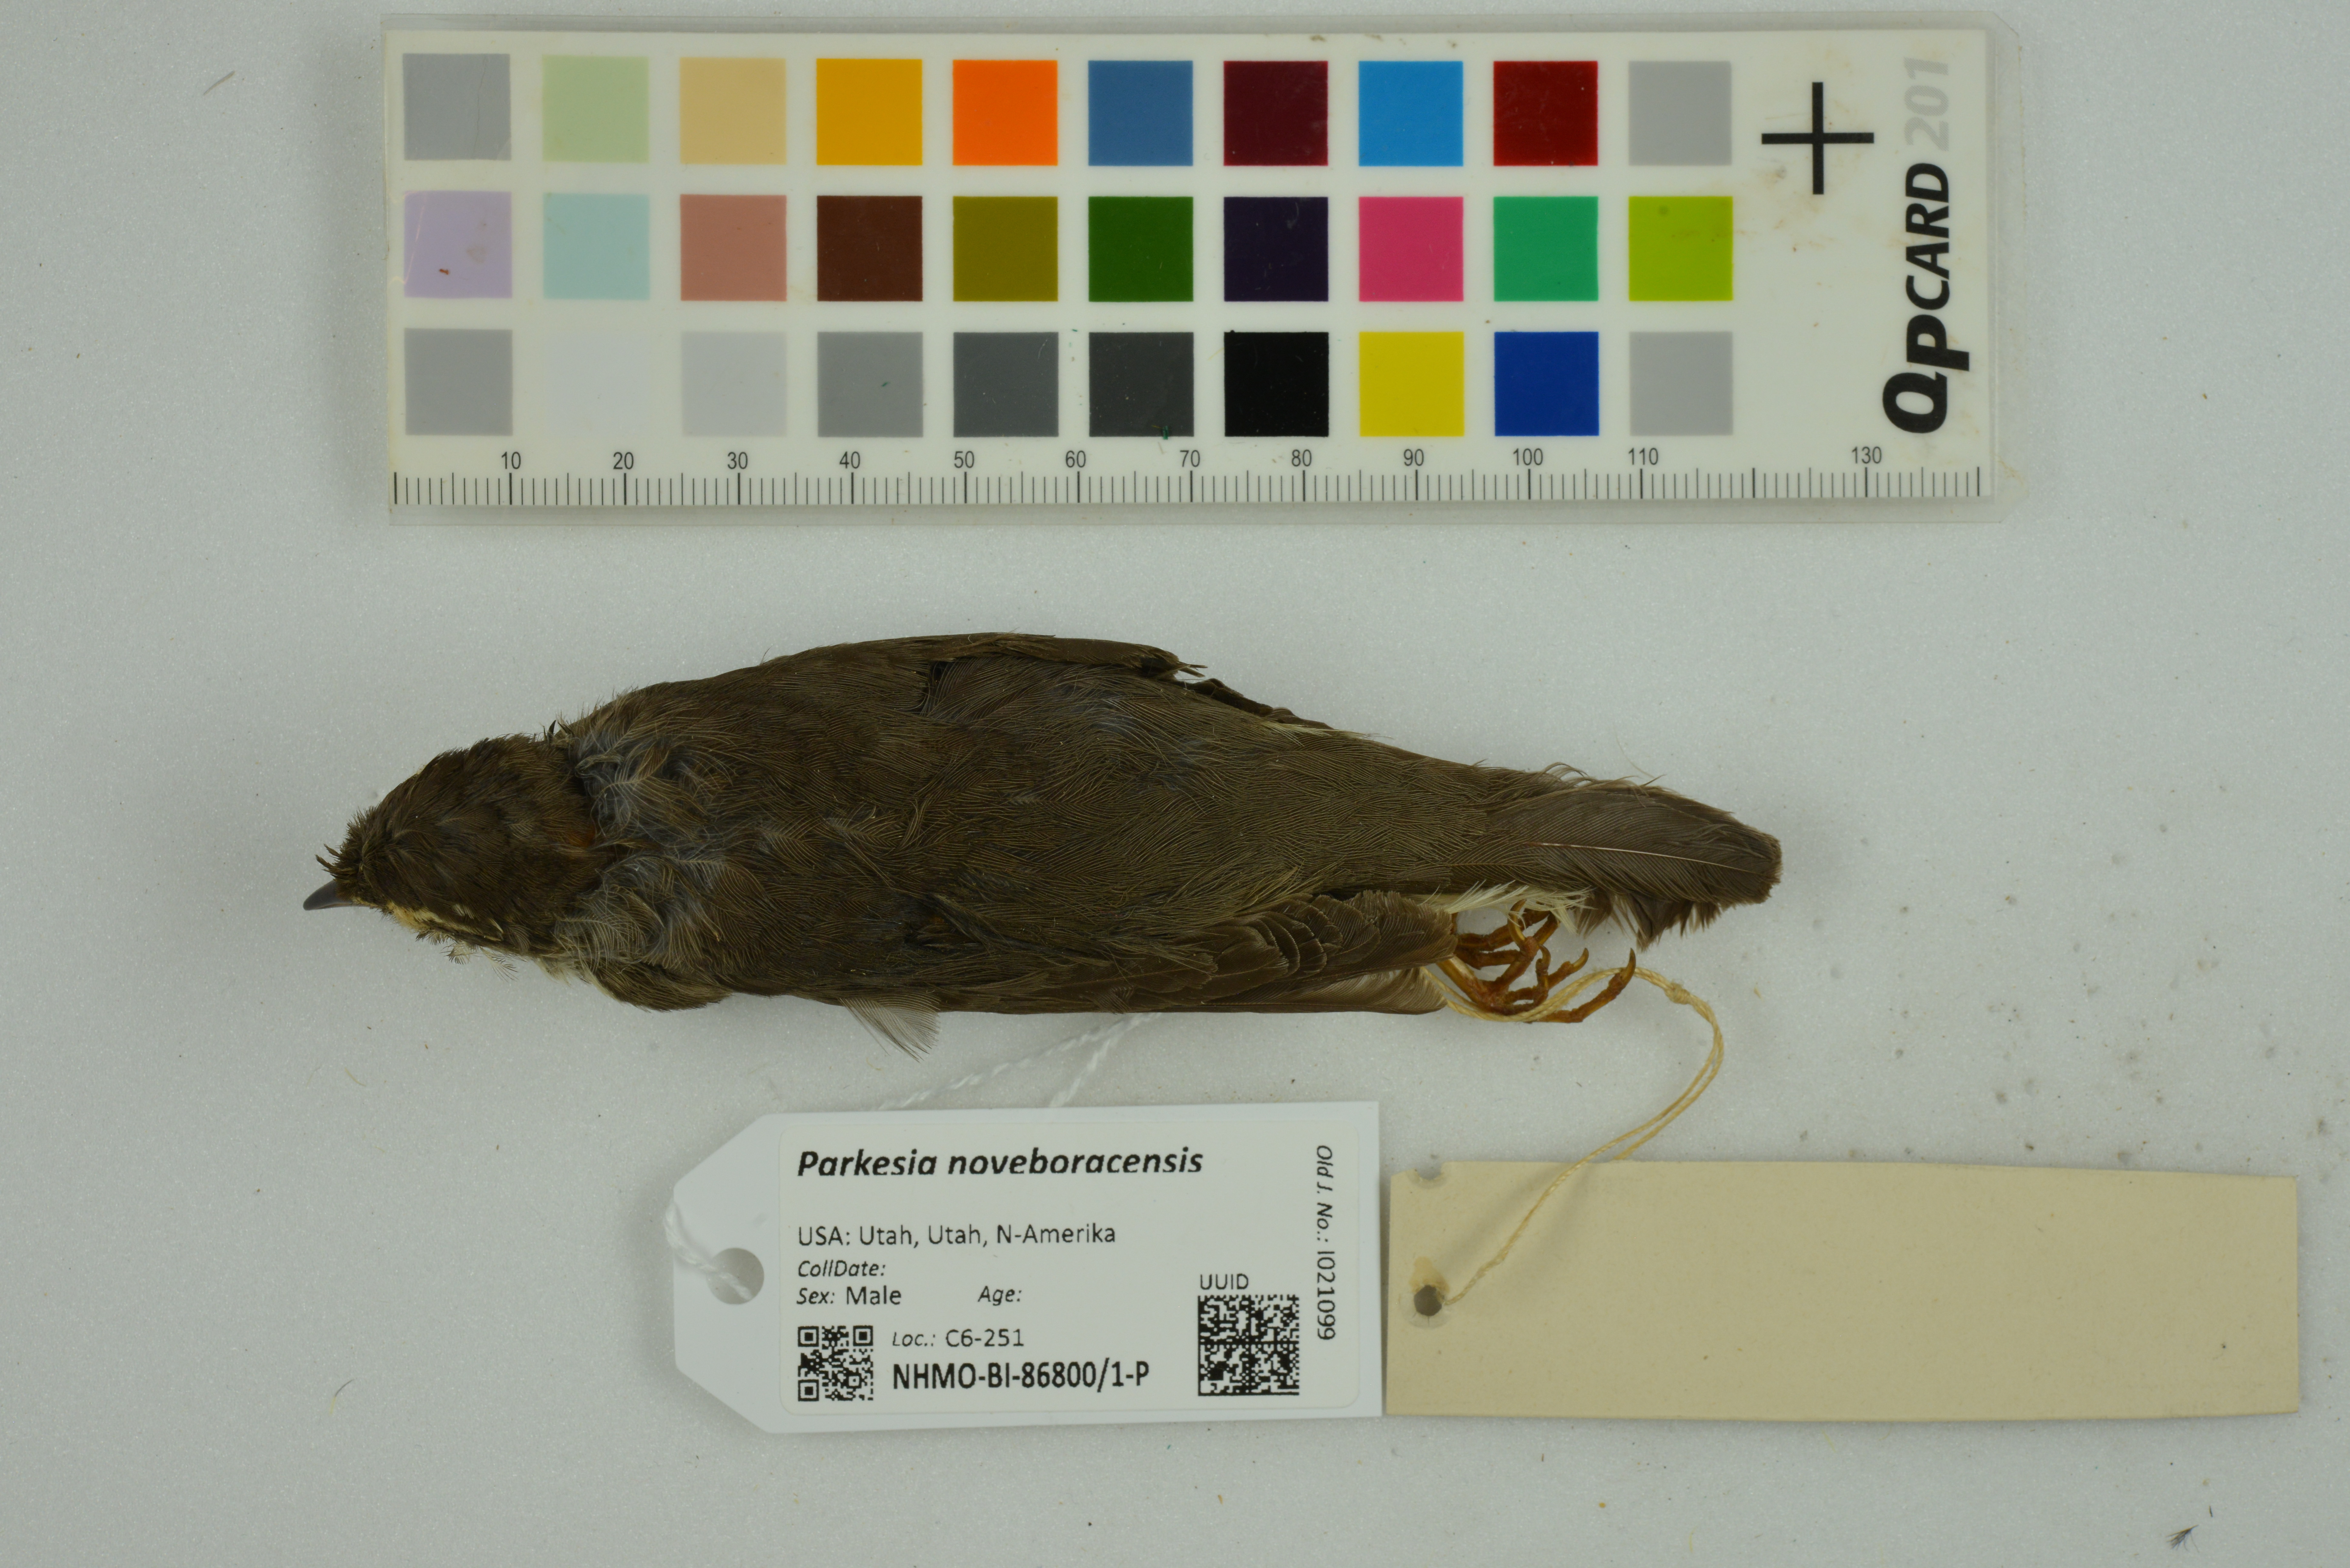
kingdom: Animalia
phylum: Chordata
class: Aves
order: Passeriformes
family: Parulidae
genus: Parkesia
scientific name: Parkesia noveboracensis
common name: Northern waterthrush
